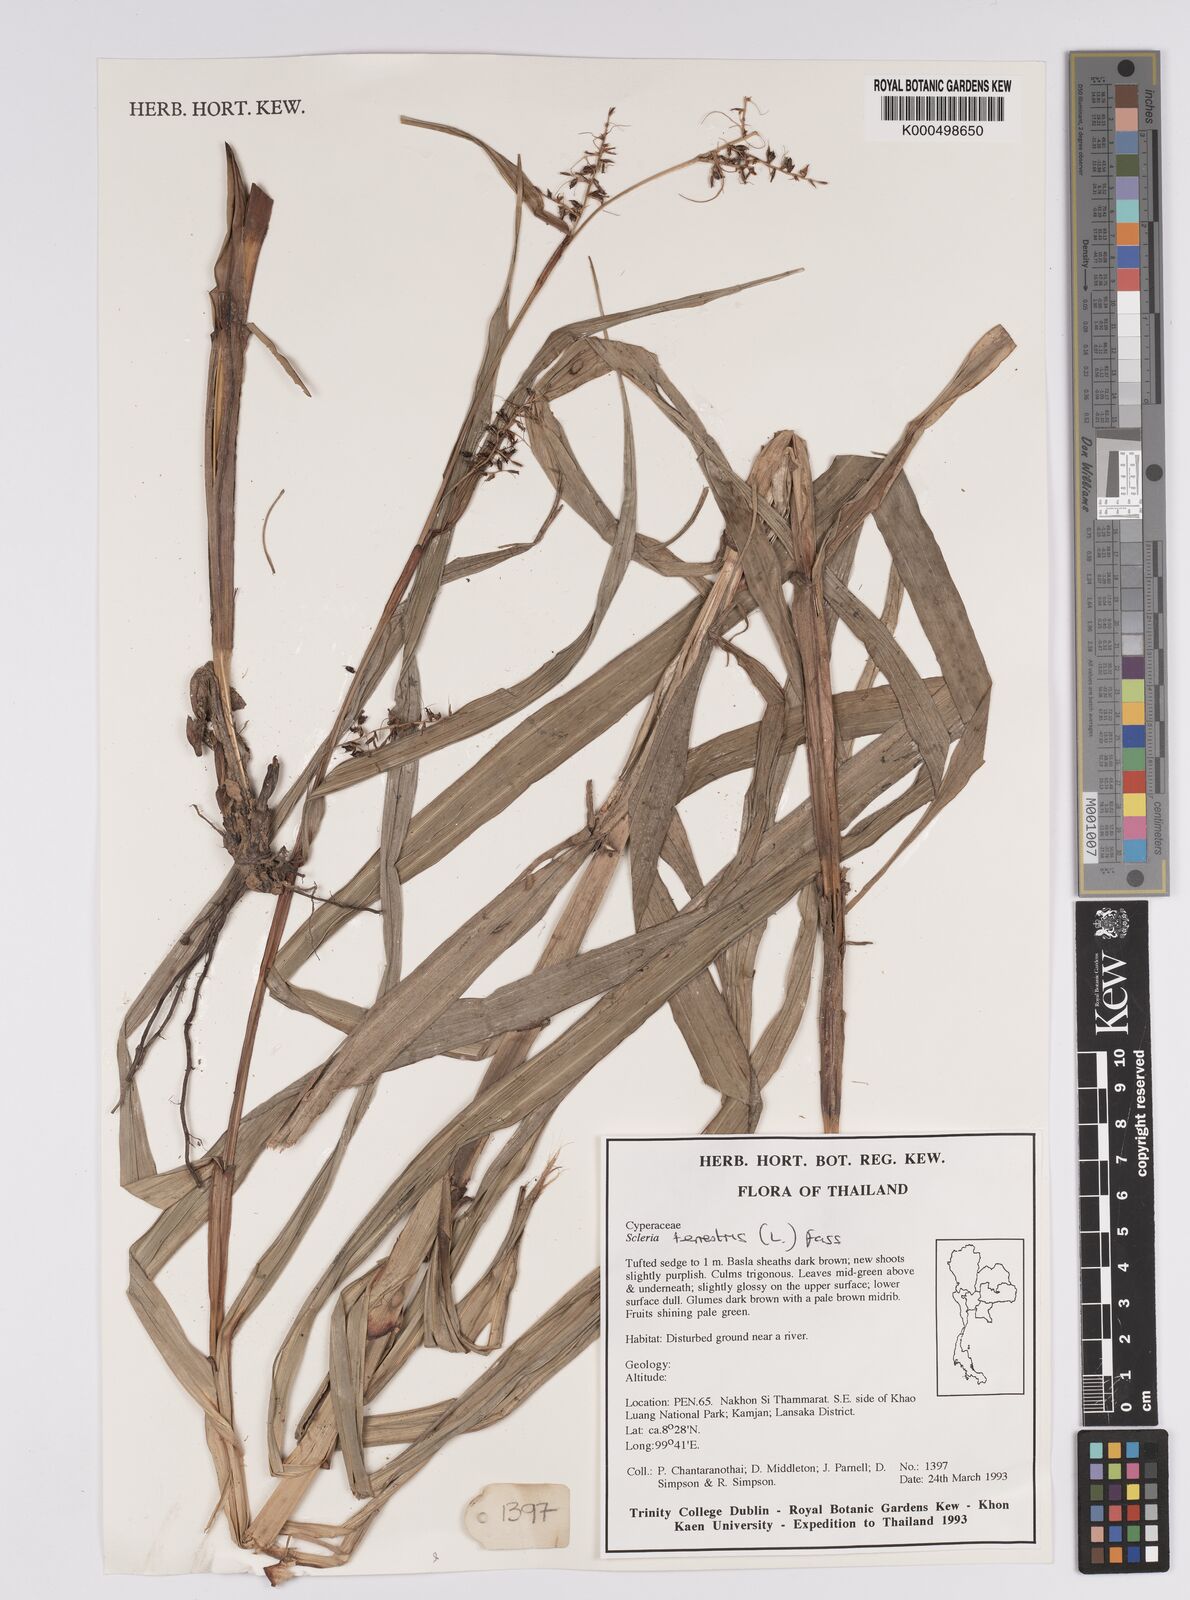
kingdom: Plantae
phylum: Tracheophyta
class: Liliopsida
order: Poales
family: Cyperaceae
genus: Scleria
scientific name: Scleria terrestris
